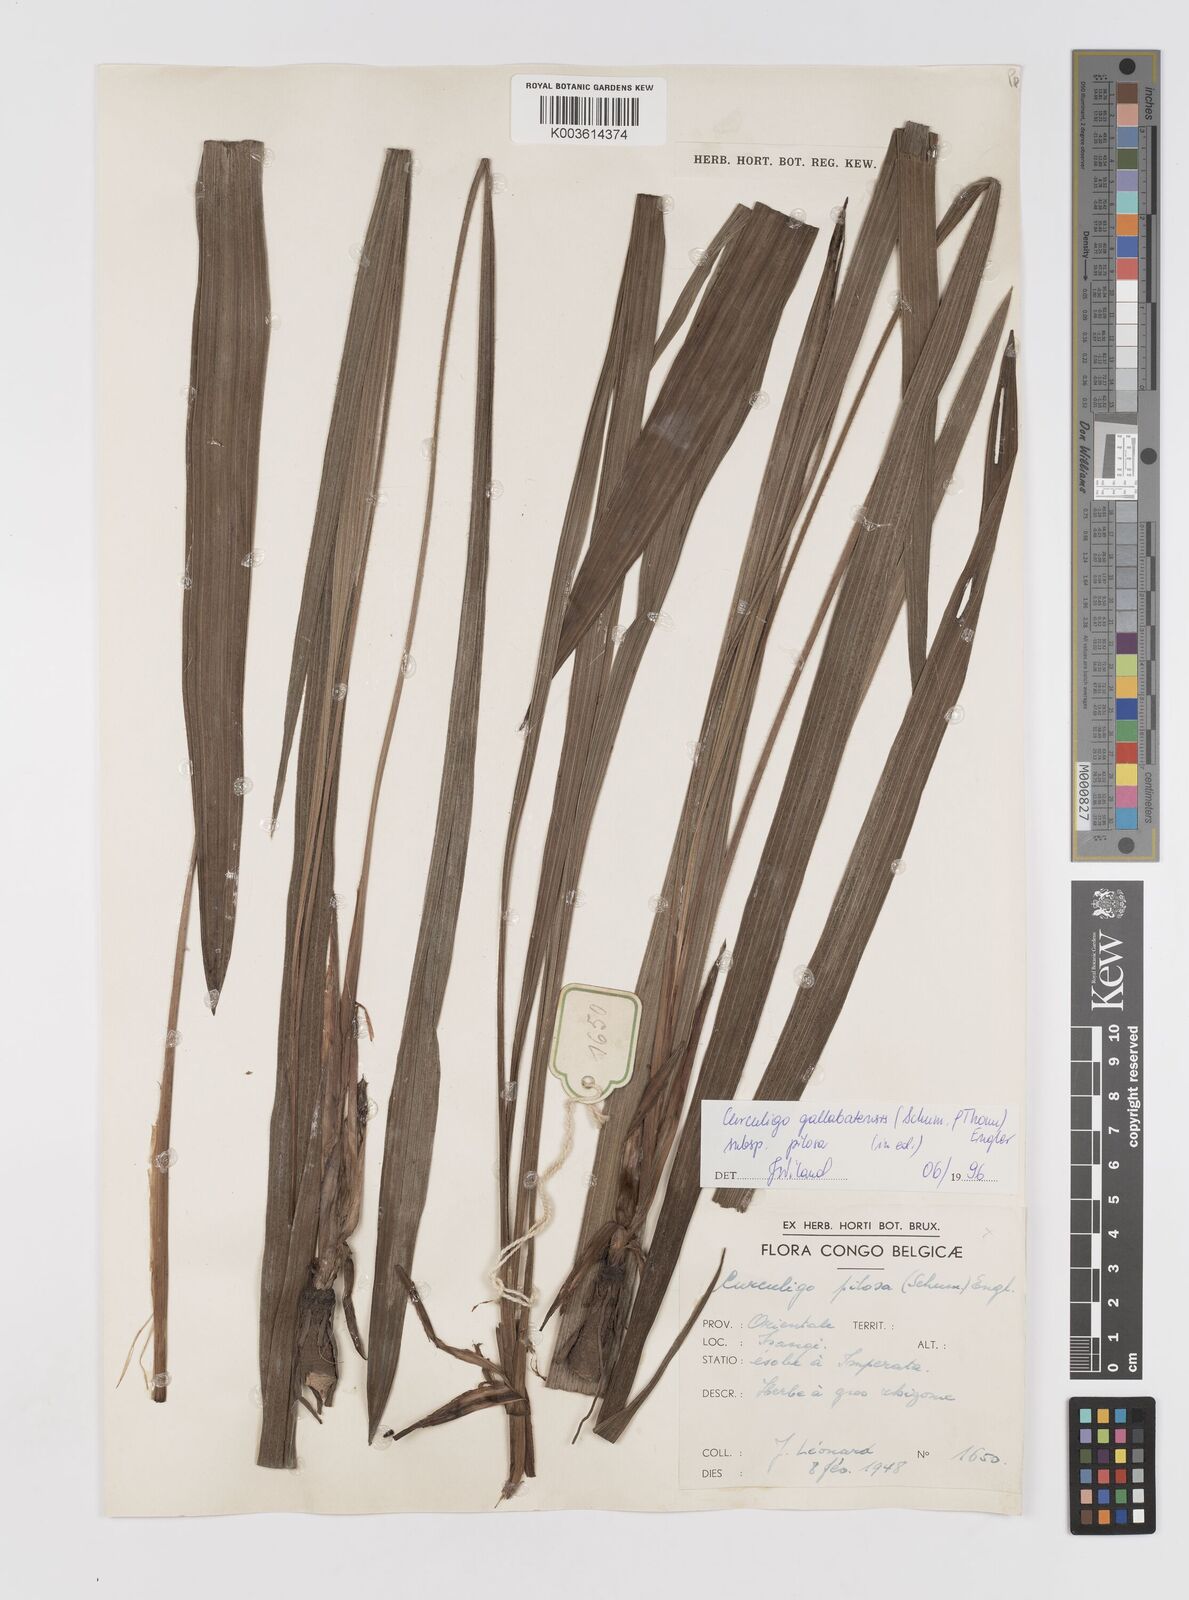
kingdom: Plantae
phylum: Tracheophyta
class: Liliopsida
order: Asparagales
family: Hypoxidaceae
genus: Curculigo
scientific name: Curculigo pilosa
